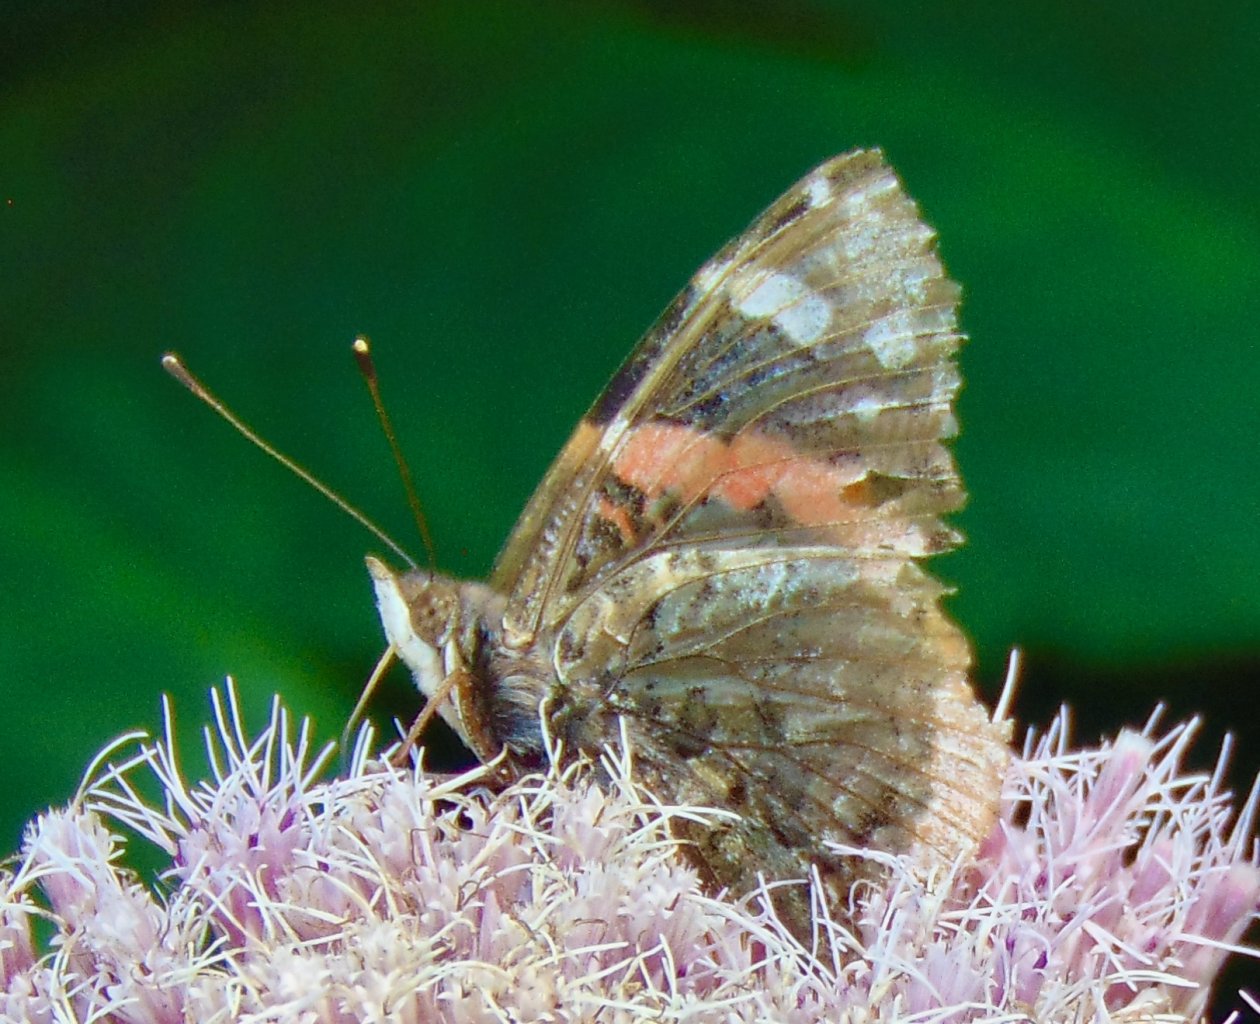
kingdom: Animalia
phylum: Arthropoda
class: Insecta
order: Lepidoptera
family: Nymphalidae
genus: Vanessa
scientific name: Vanessa atalanta
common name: Red Admiral
